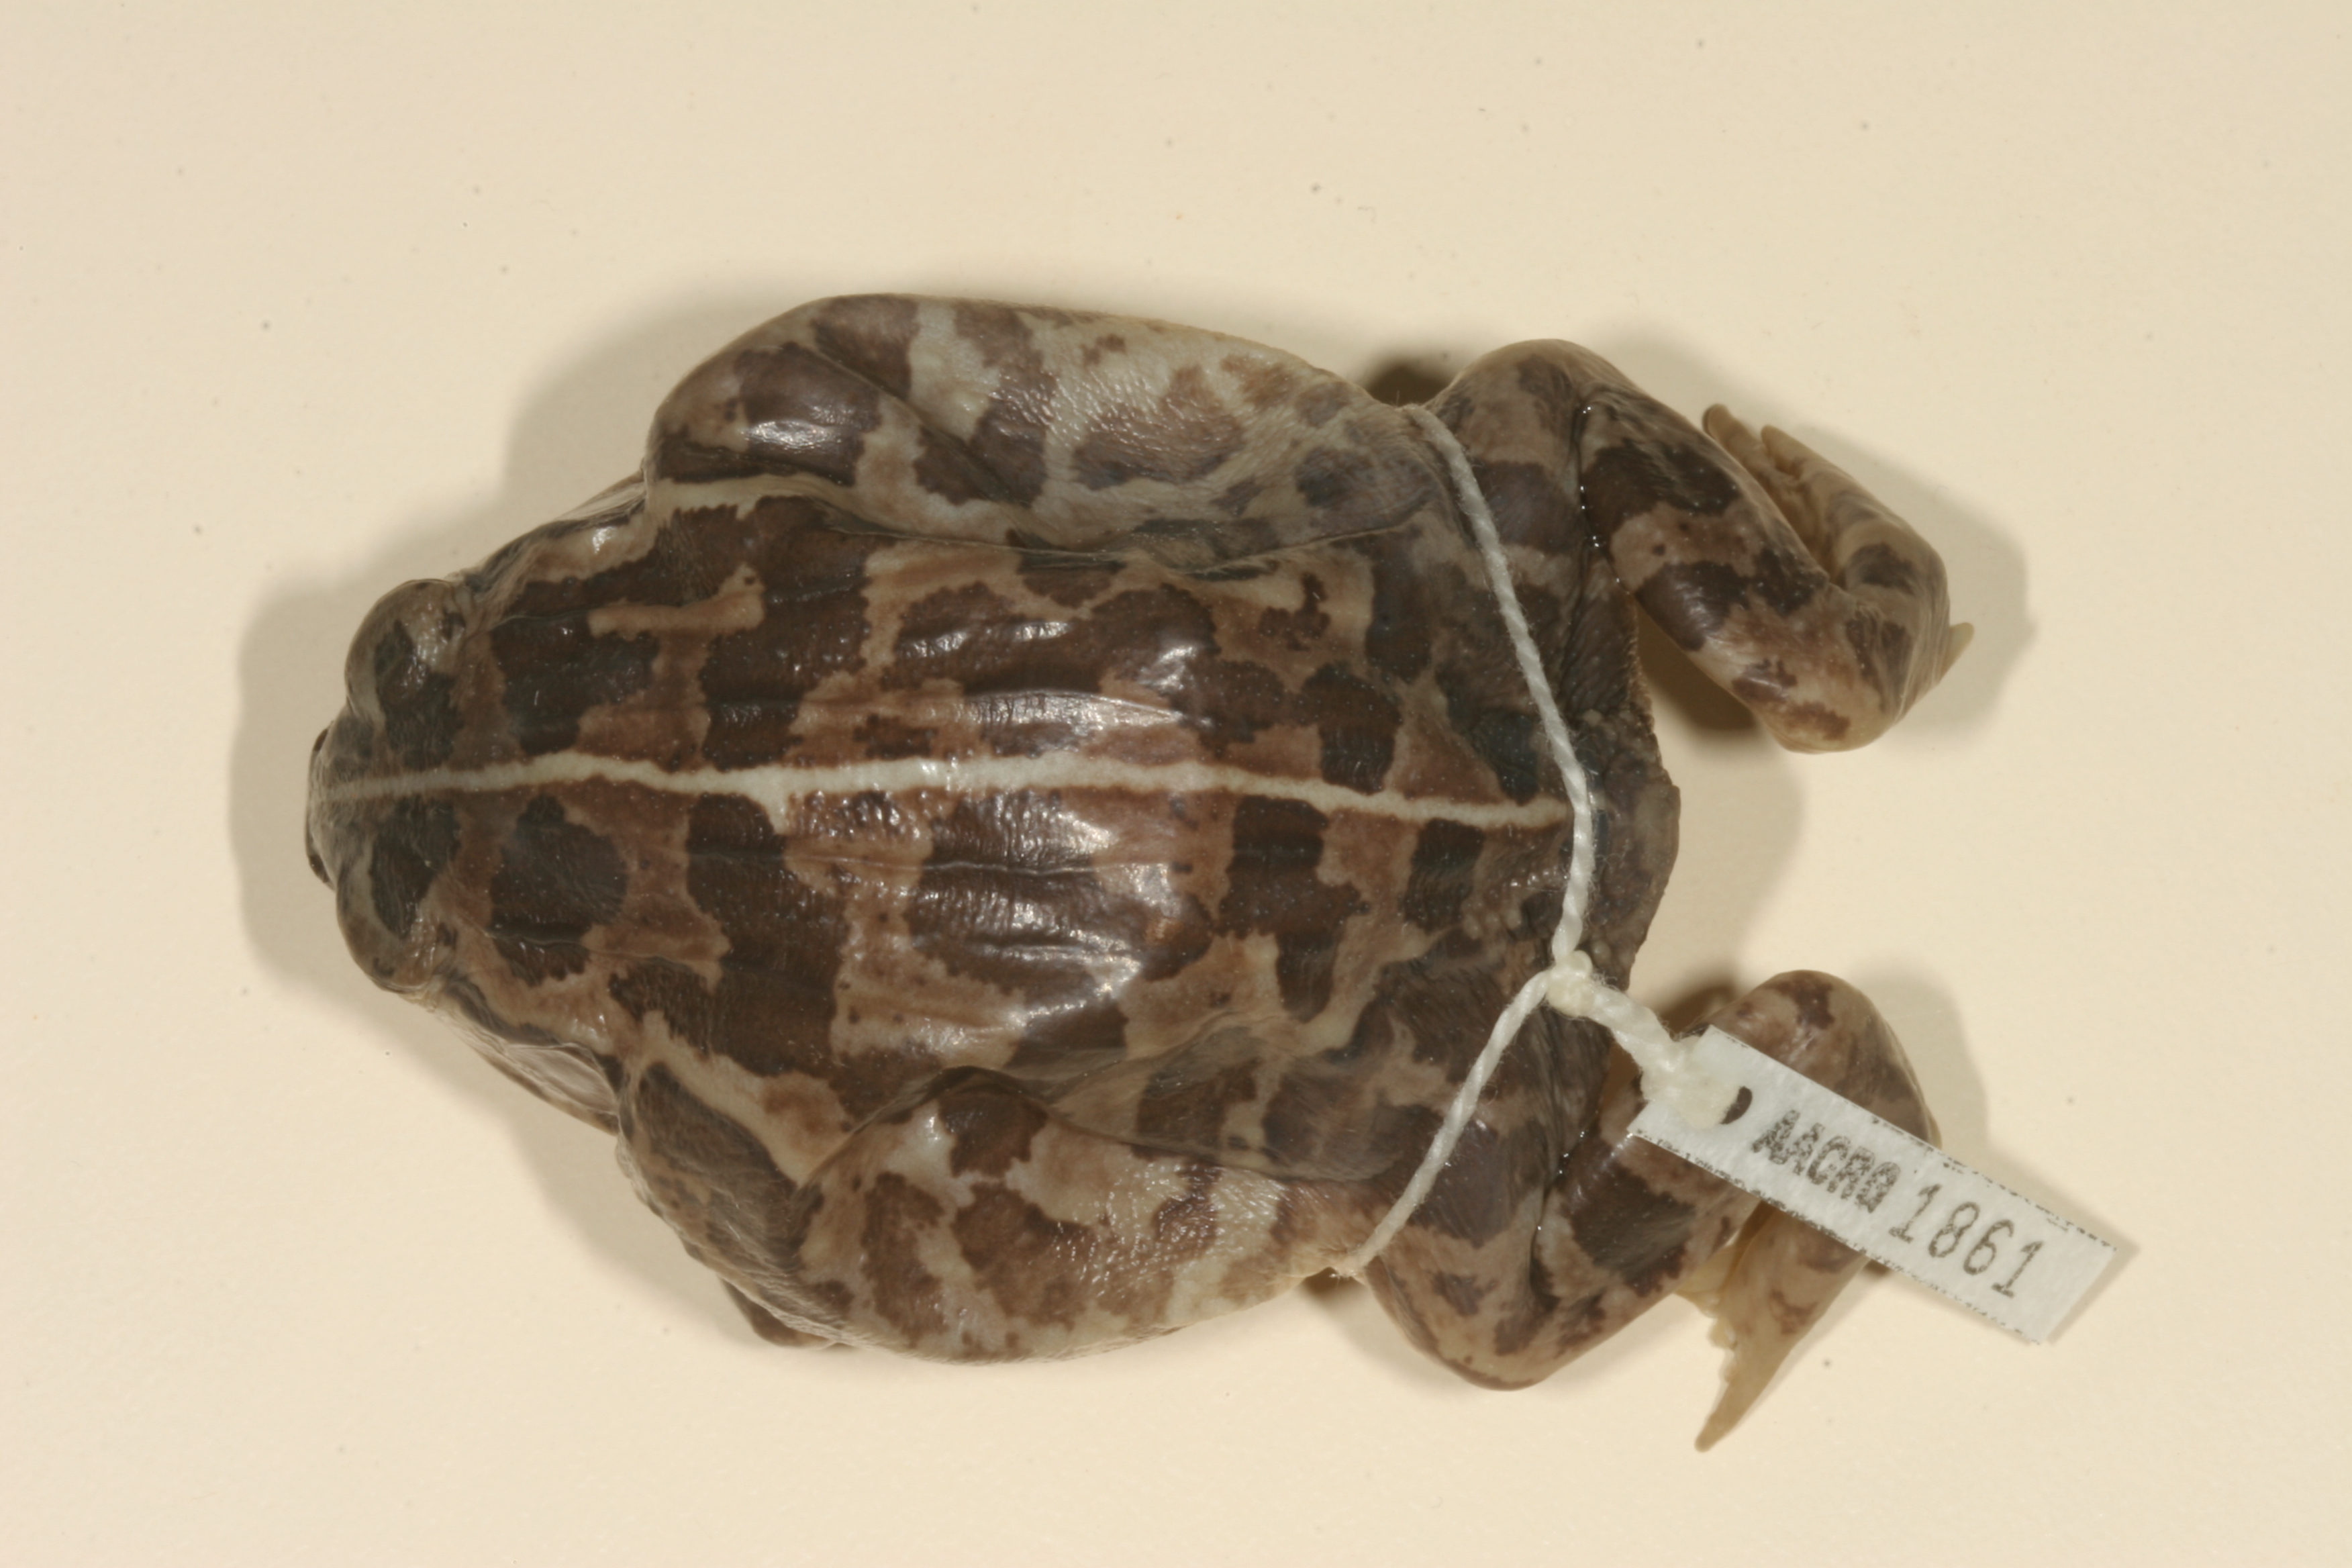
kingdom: Animalia
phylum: Chordata
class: Amphibia
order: Anura
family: Pyxicephalidae
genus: Pyxicephalus
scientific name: Pyxicephalus edulis
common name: Peter's bullfrog
